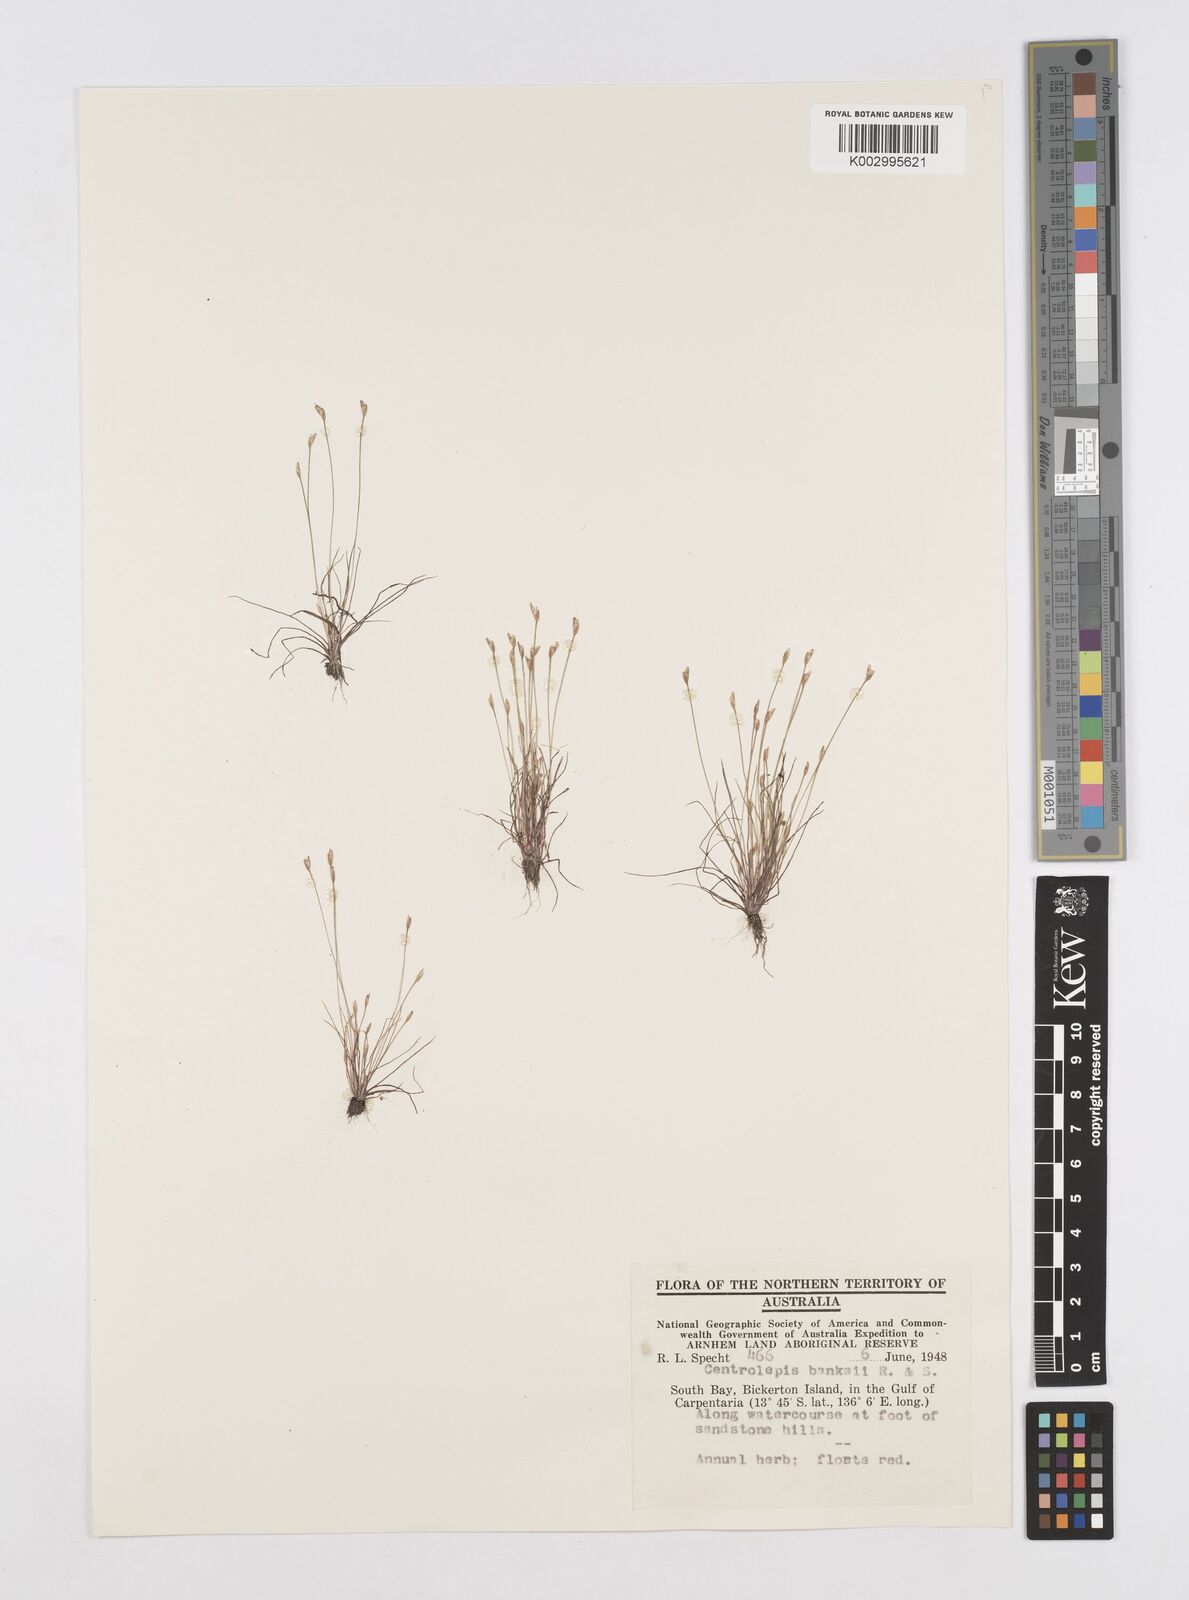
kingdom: Plantae
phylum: Tracheophyta
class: Liliopsida
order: Poales
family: Restionaceae
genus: Centrolepis
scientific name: Centrolepis banksii
